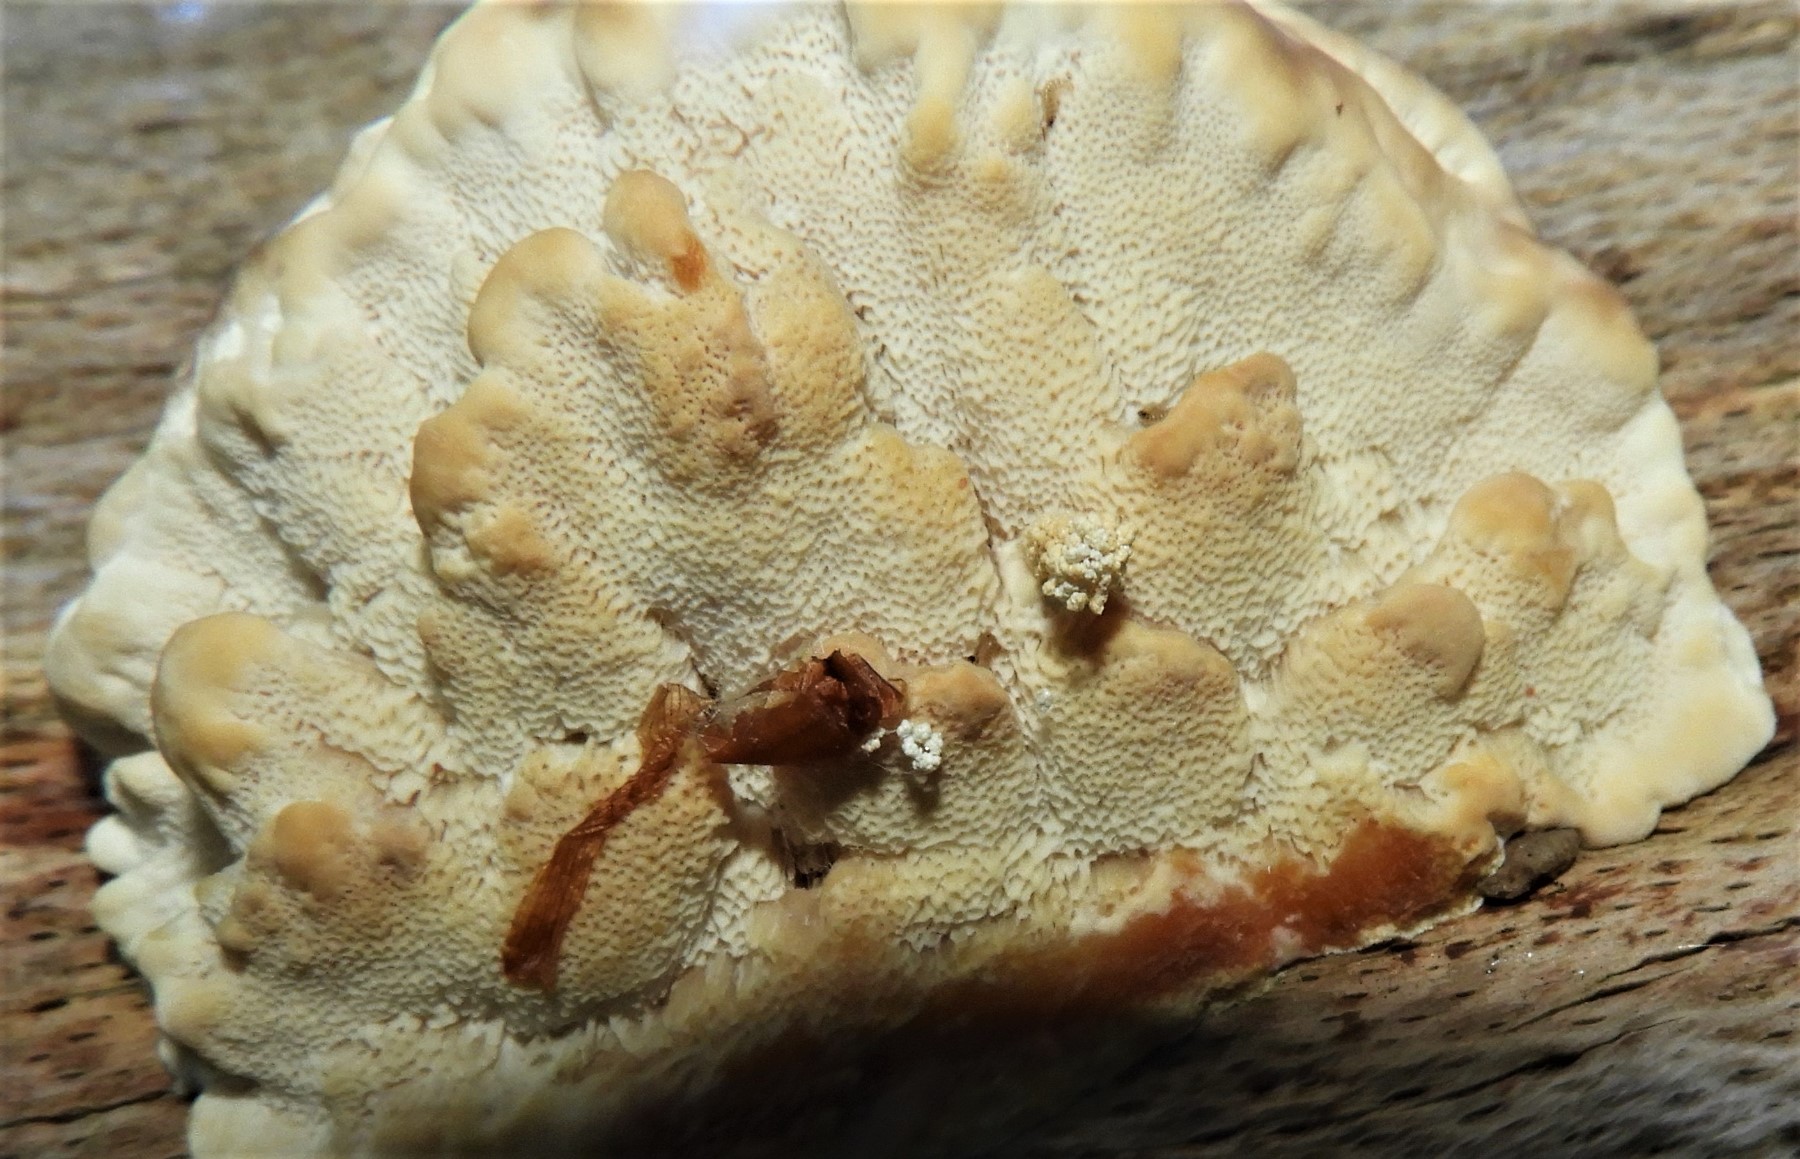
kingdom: Fungi
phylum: Basidiomycota
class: Agaricomycetes
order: Polyporales
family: Polyporaceae
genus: Trametes
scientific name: Trametes
